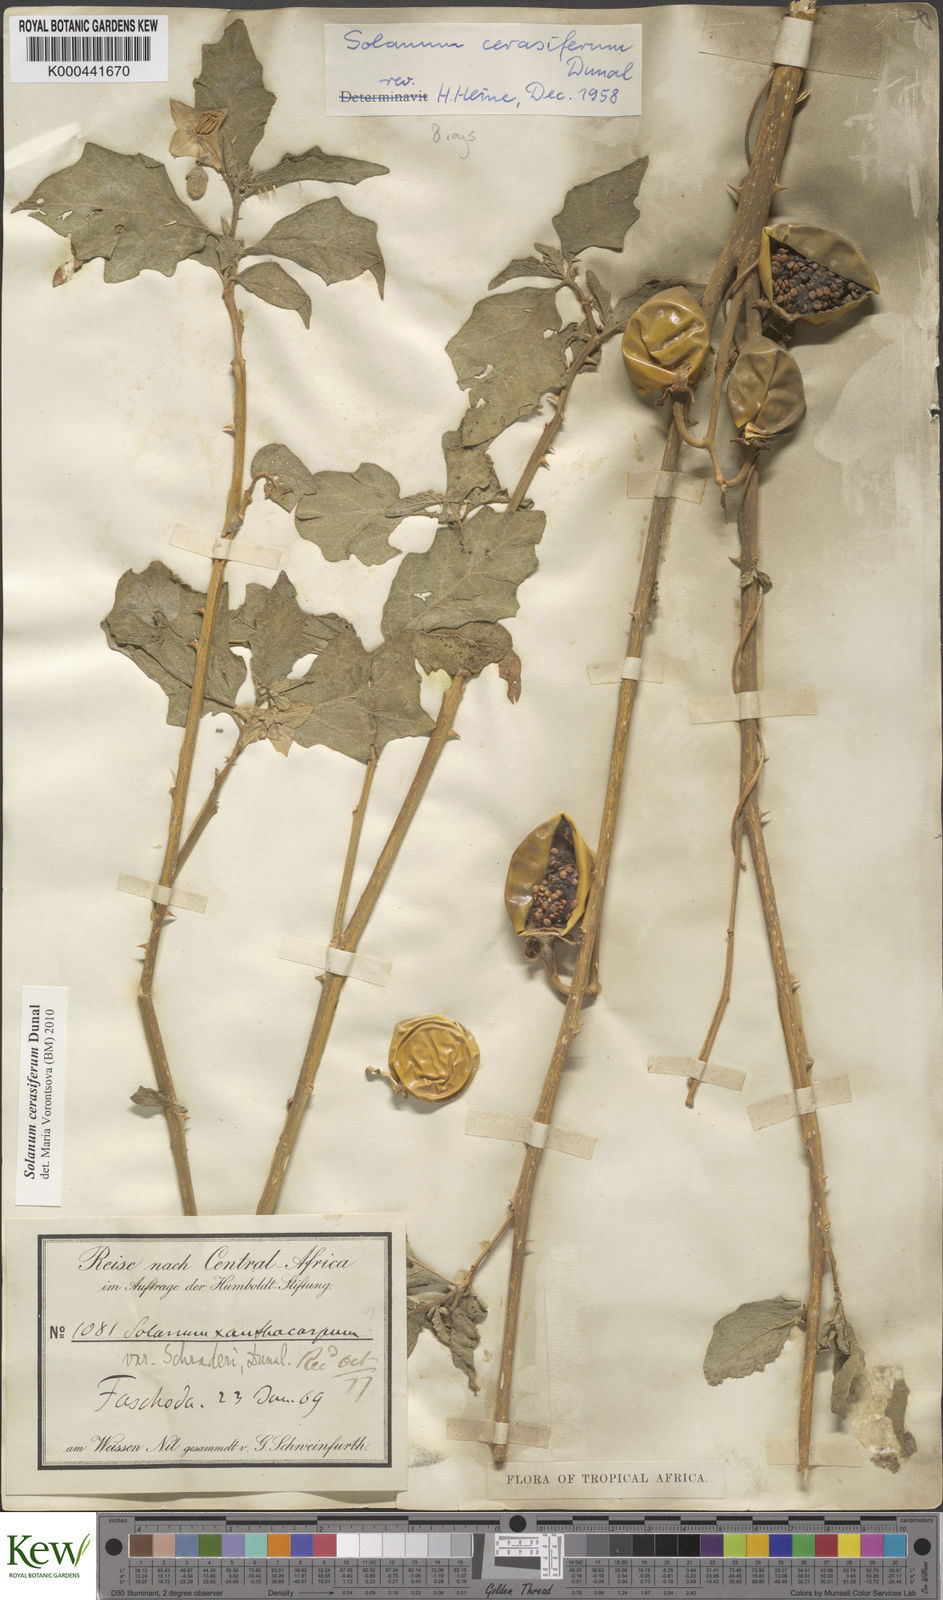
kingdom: Plantae
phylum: Tracheophyta
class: Magnoliopsida
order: Solanales
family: Solanaceae
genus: Solanum
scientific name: Solanum cerasiferum
